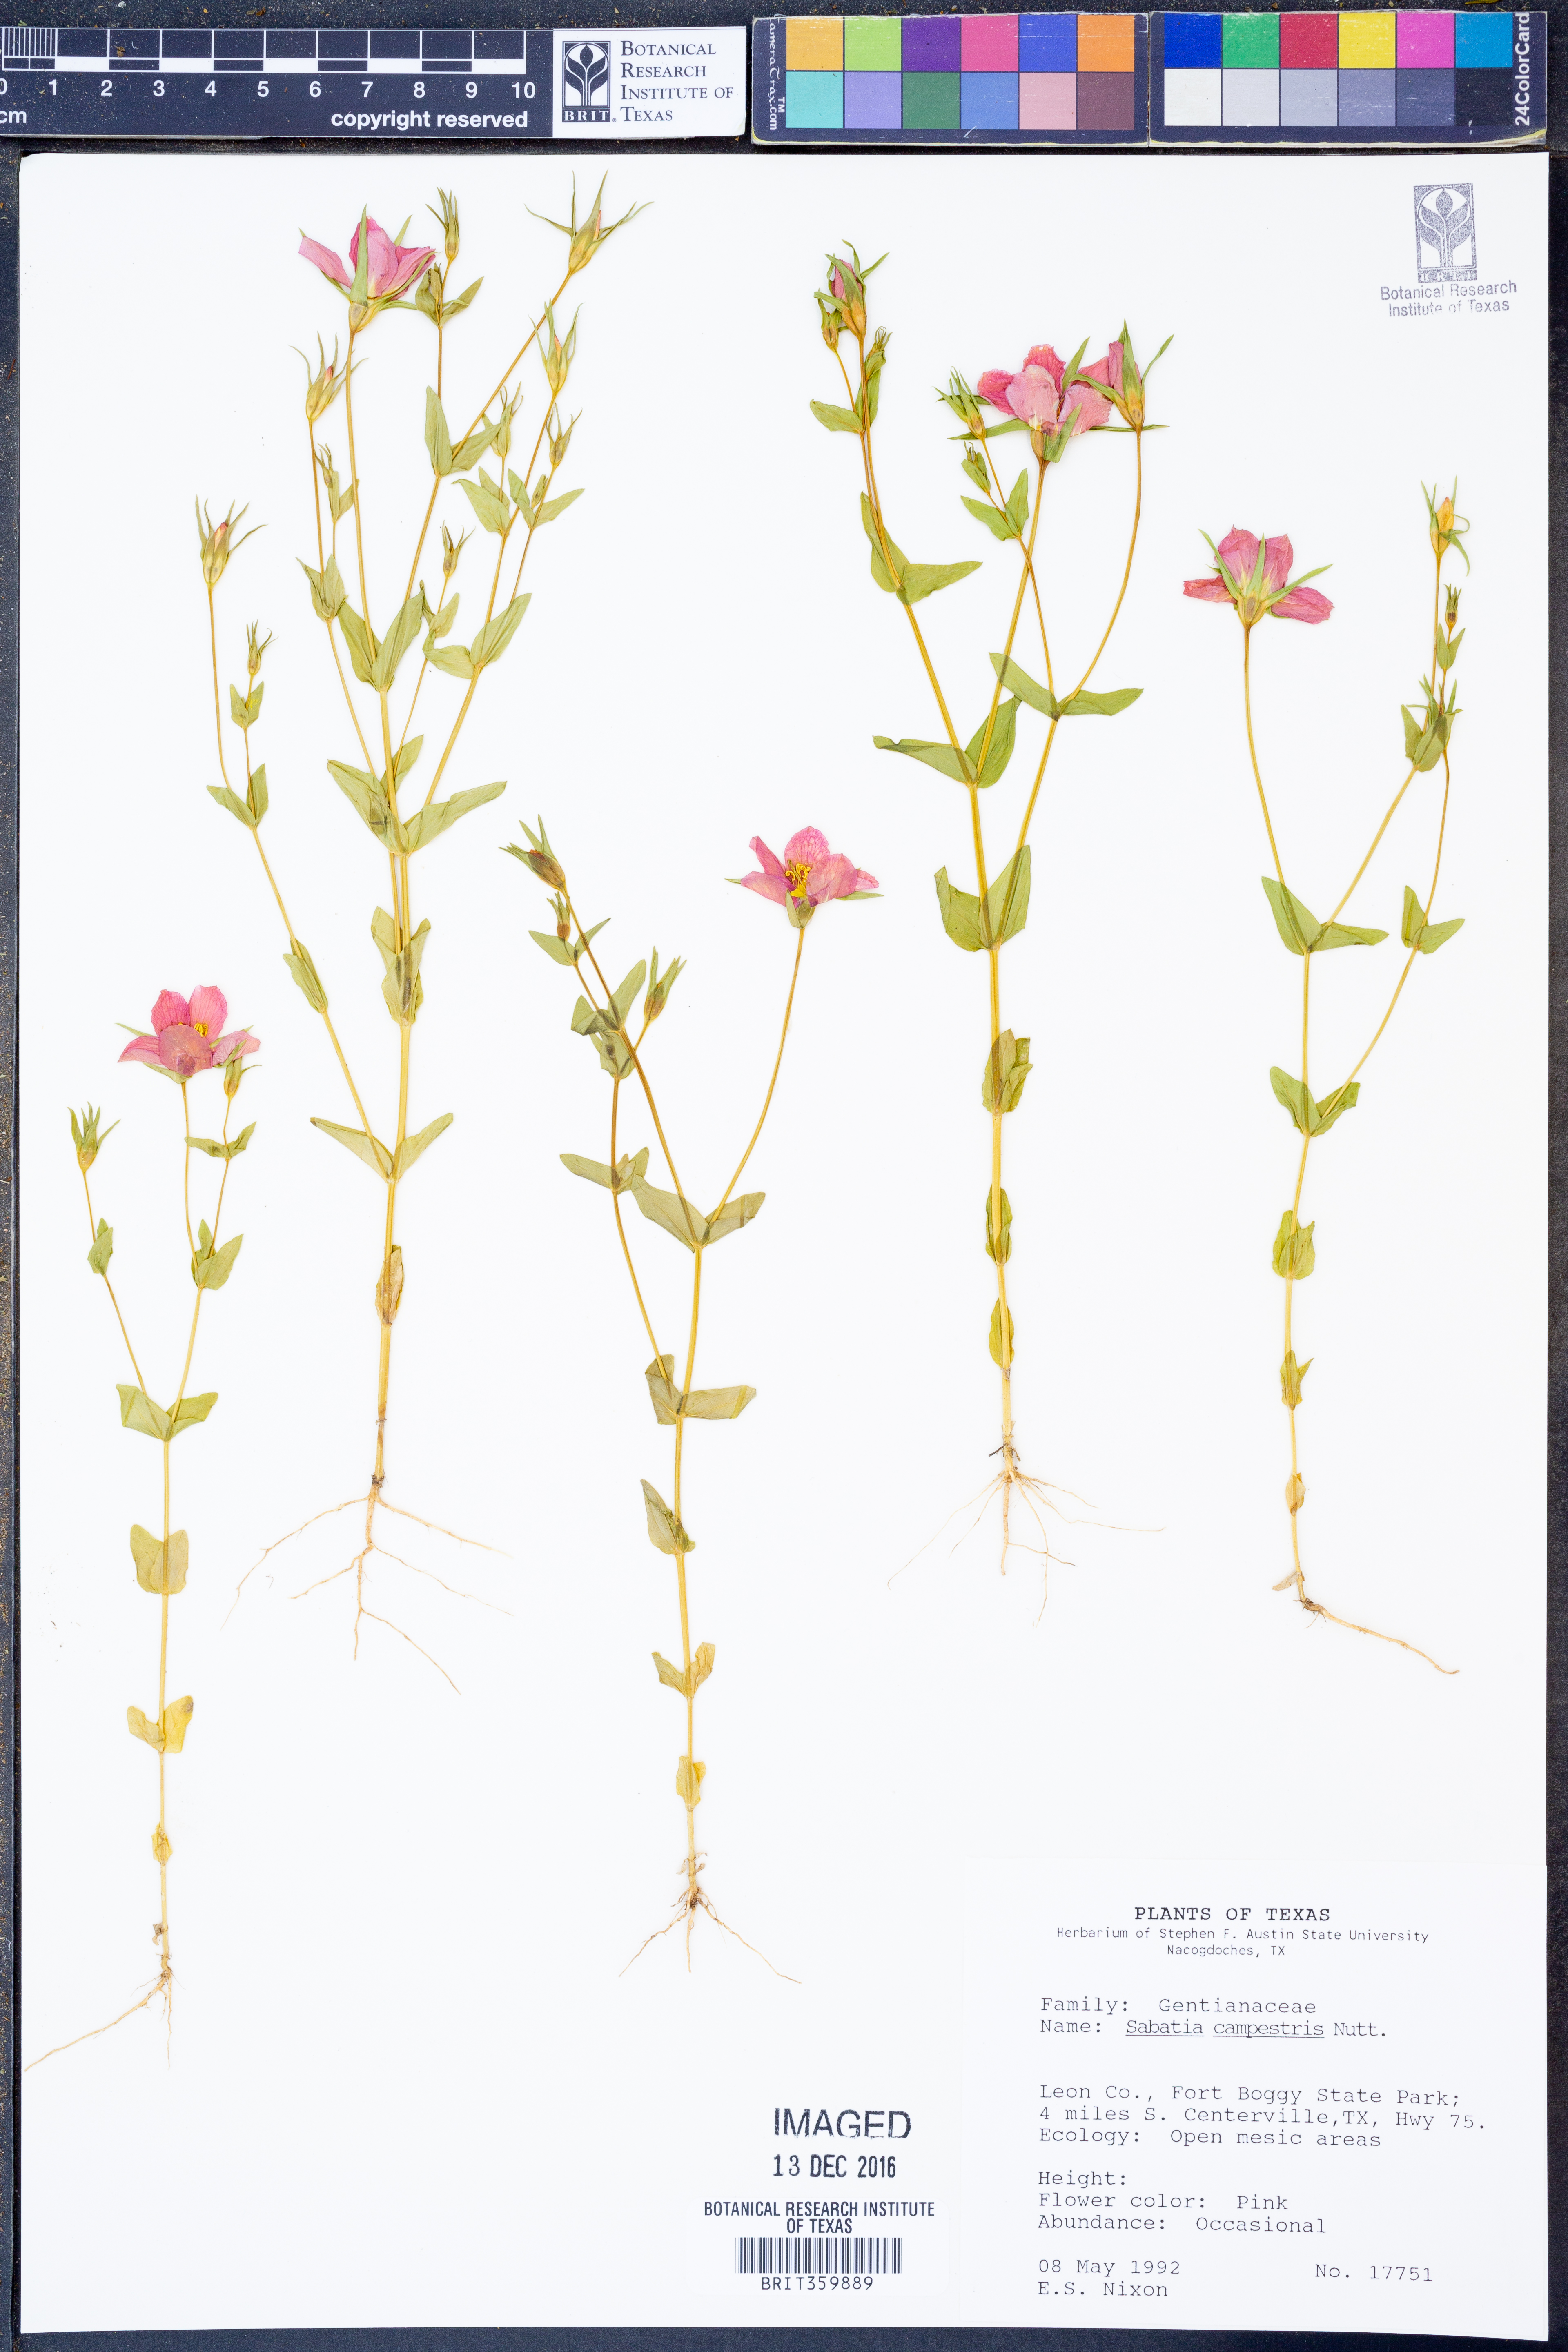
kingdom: Plantae
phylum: Tracheophyta
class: Magnoliopsida
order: Gentianales
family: Gentianaceae
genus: Sabatia
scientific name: Sabatia campestris
